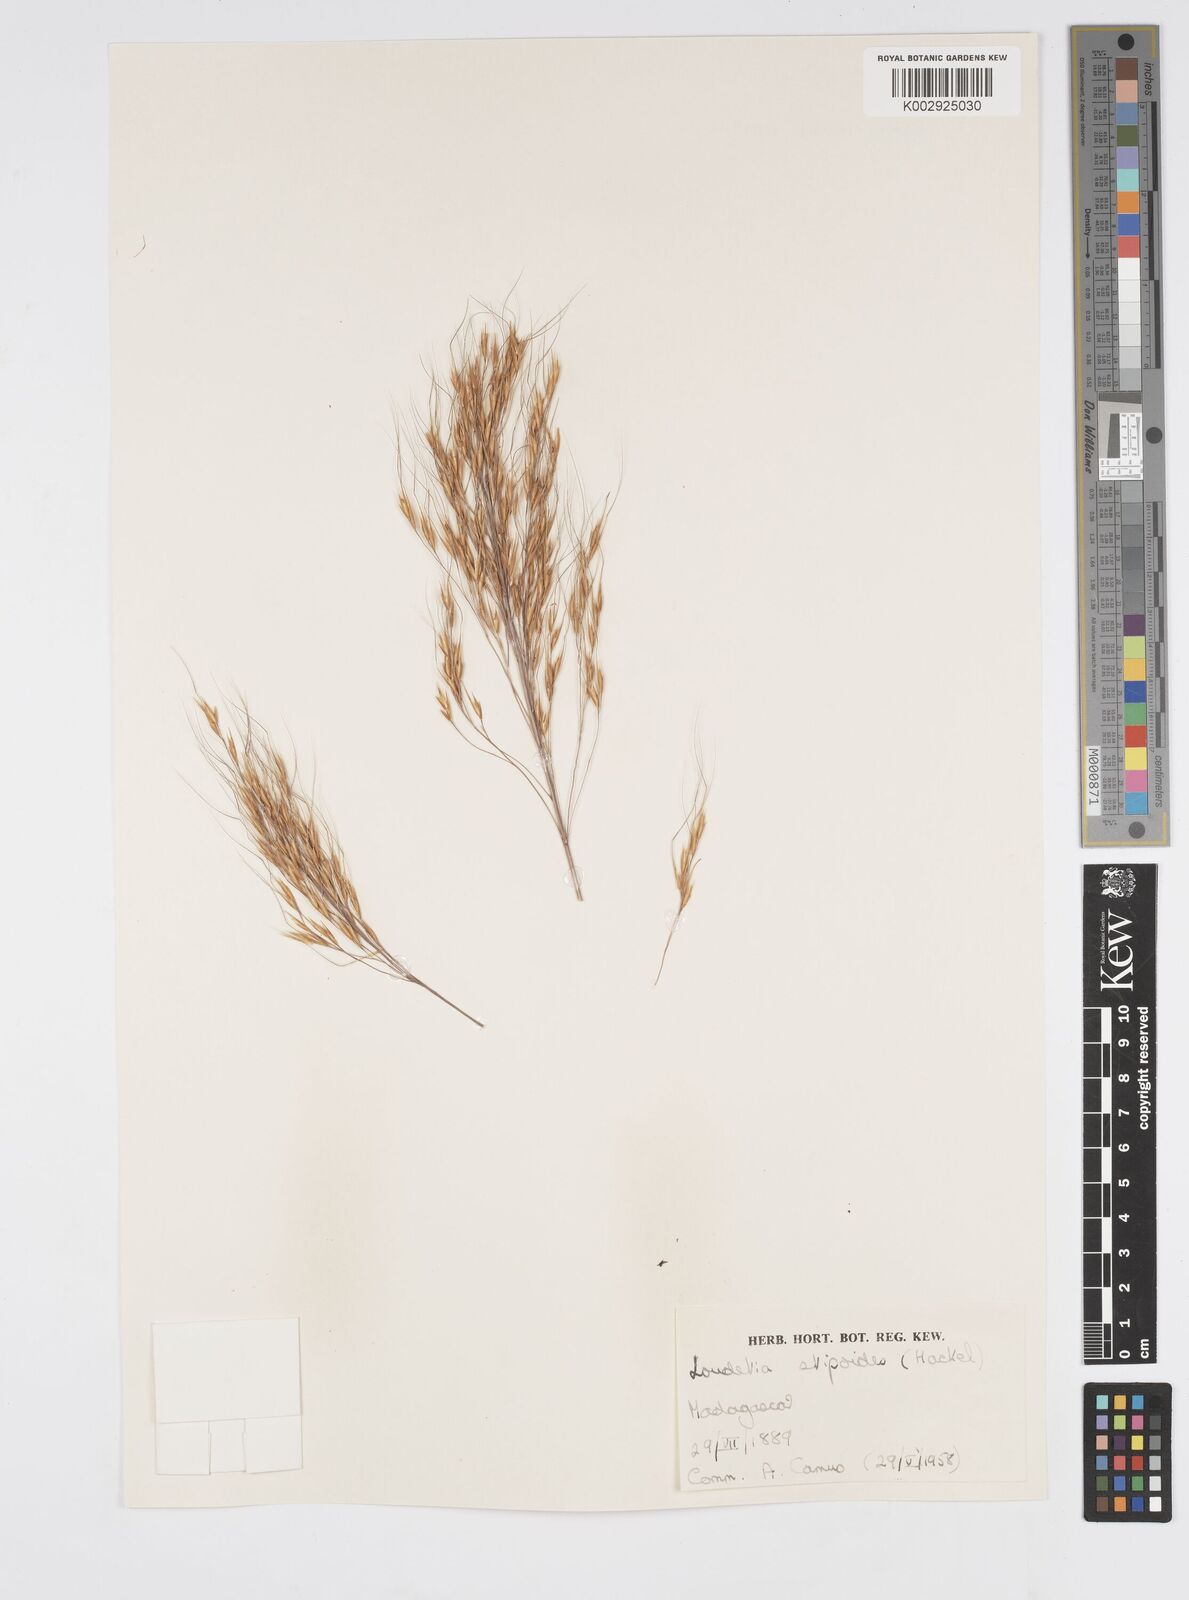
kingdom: Plantae
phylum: Tracheophyta
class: Liliopsida
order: Poales
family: Poaceae
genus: Loudetia
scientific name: Loudetia
